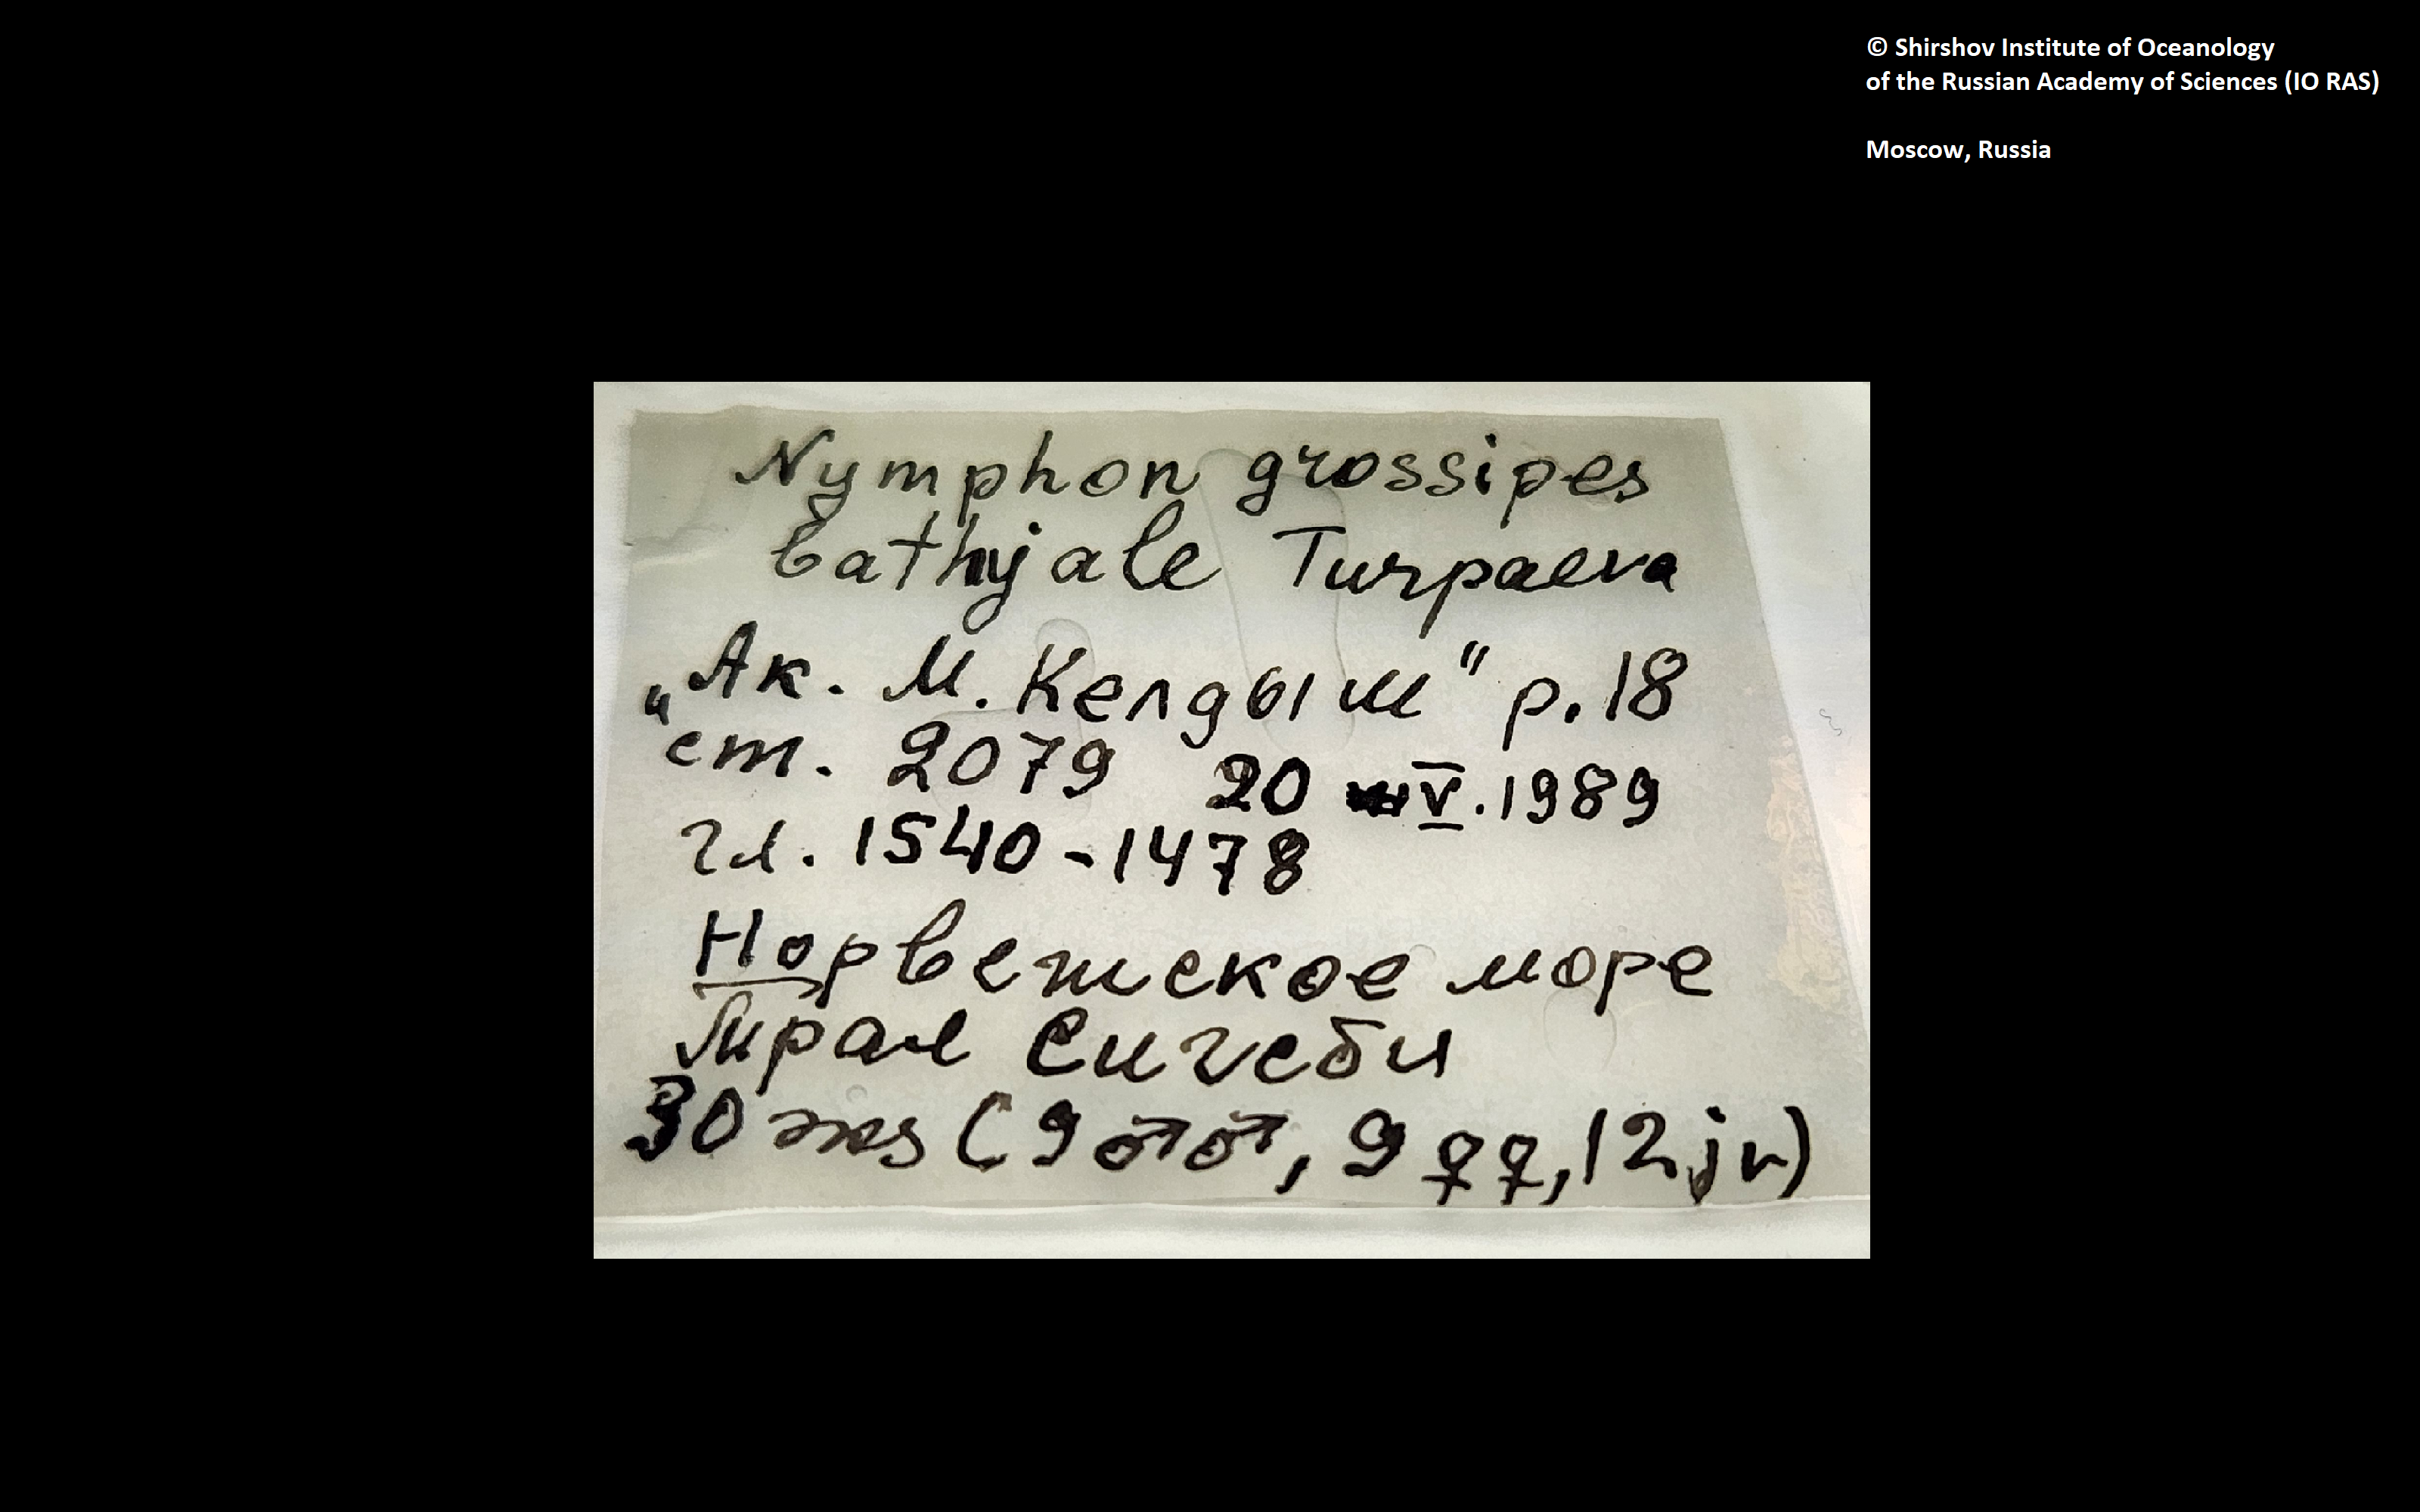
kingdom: Animalia
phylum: Arthropoda
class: Pycnogonida
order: Pantopoda
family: Nymphonidae
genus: Nymphon
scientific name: Nymphon grossipes
